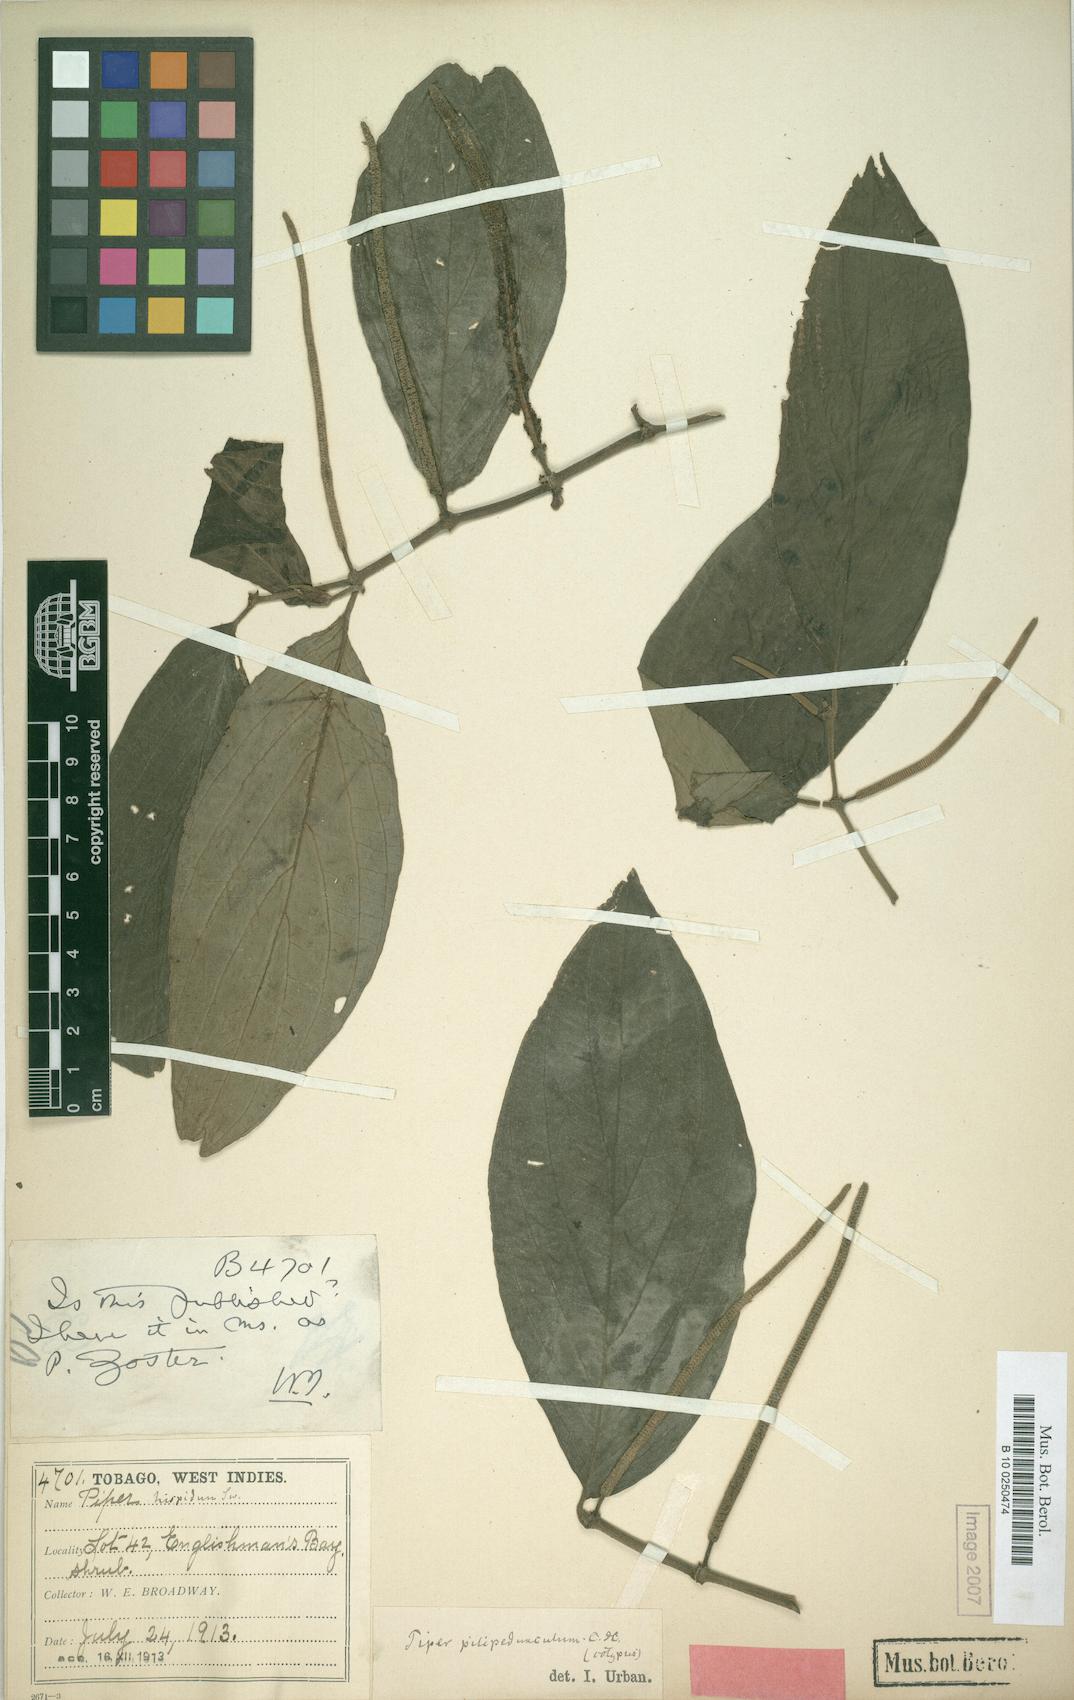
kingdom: Plantae
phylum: Tracheophyta
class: Magnoliopsida
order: Piperales
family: Piperaceae
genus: Piper
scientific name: Piper hispidum
